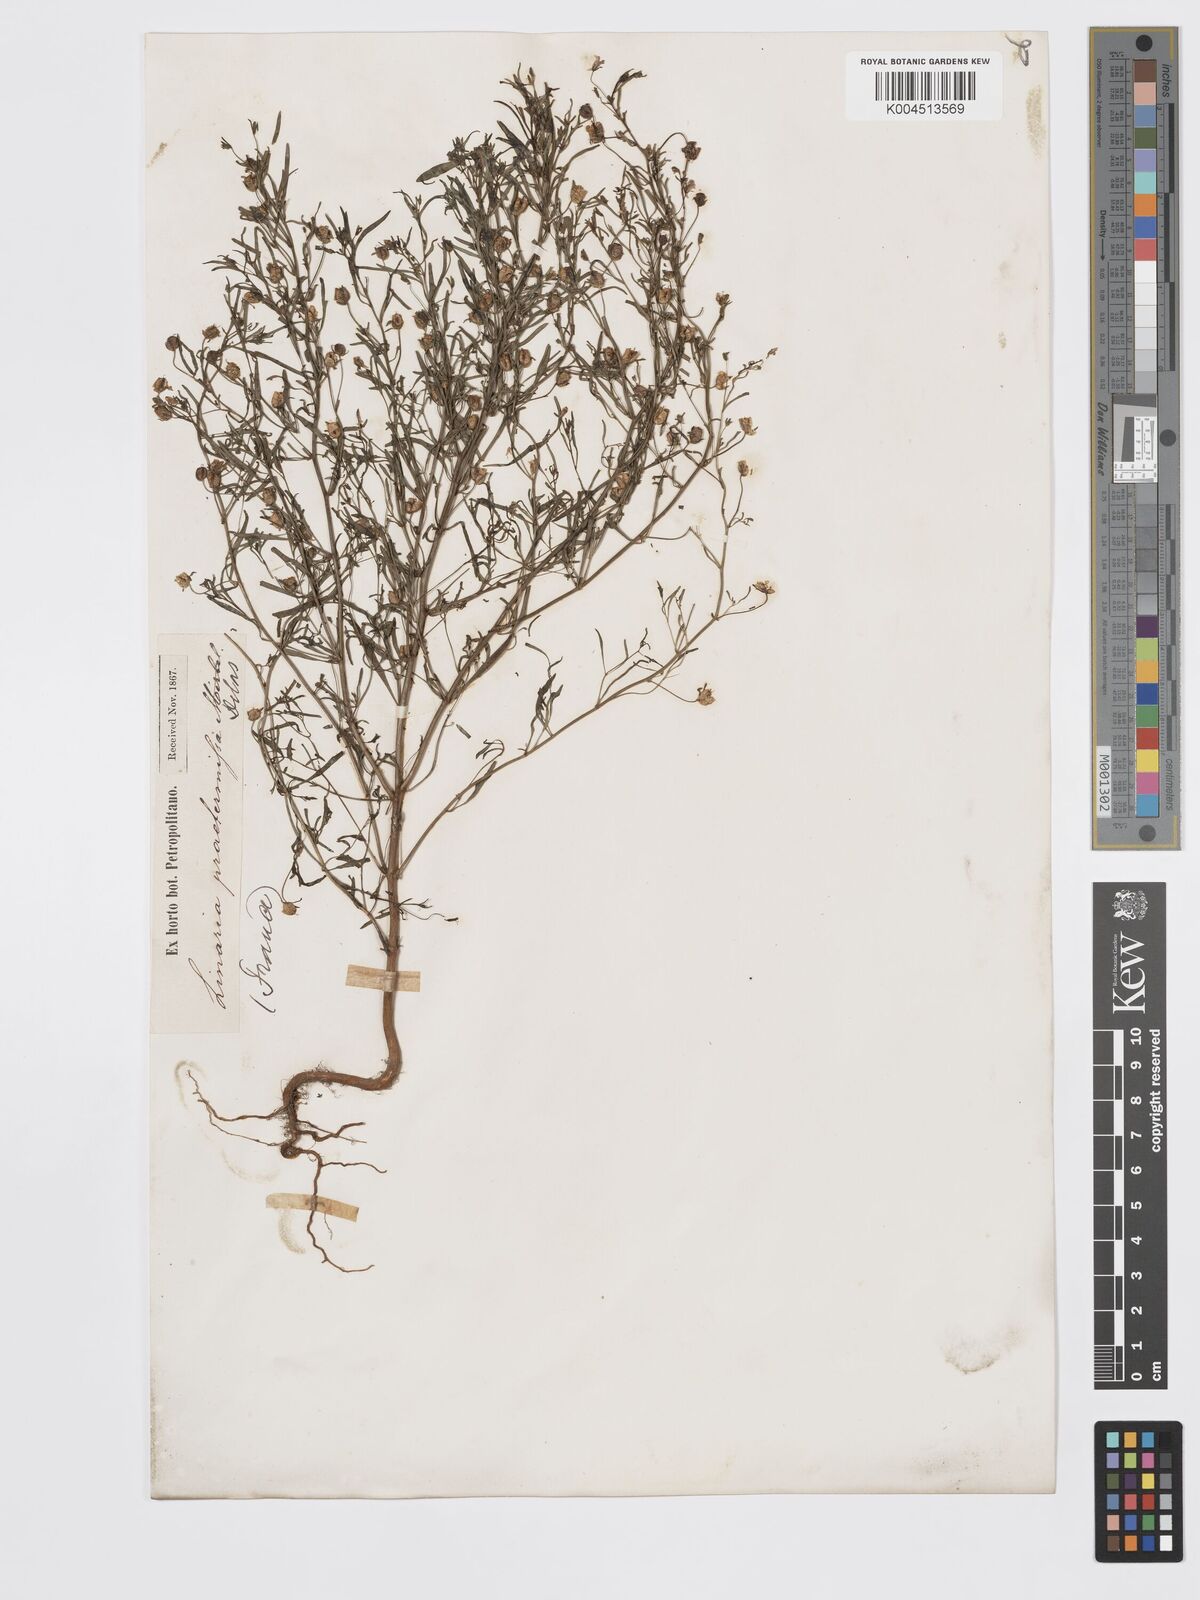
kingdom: Plantae
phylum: Tracheophyta
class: Magnoliopsida
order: Lamiales
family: Plantaginaceae
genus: Chaenorhinum
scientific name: Chaenorhinum minus
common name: Dwarf snapdragon
